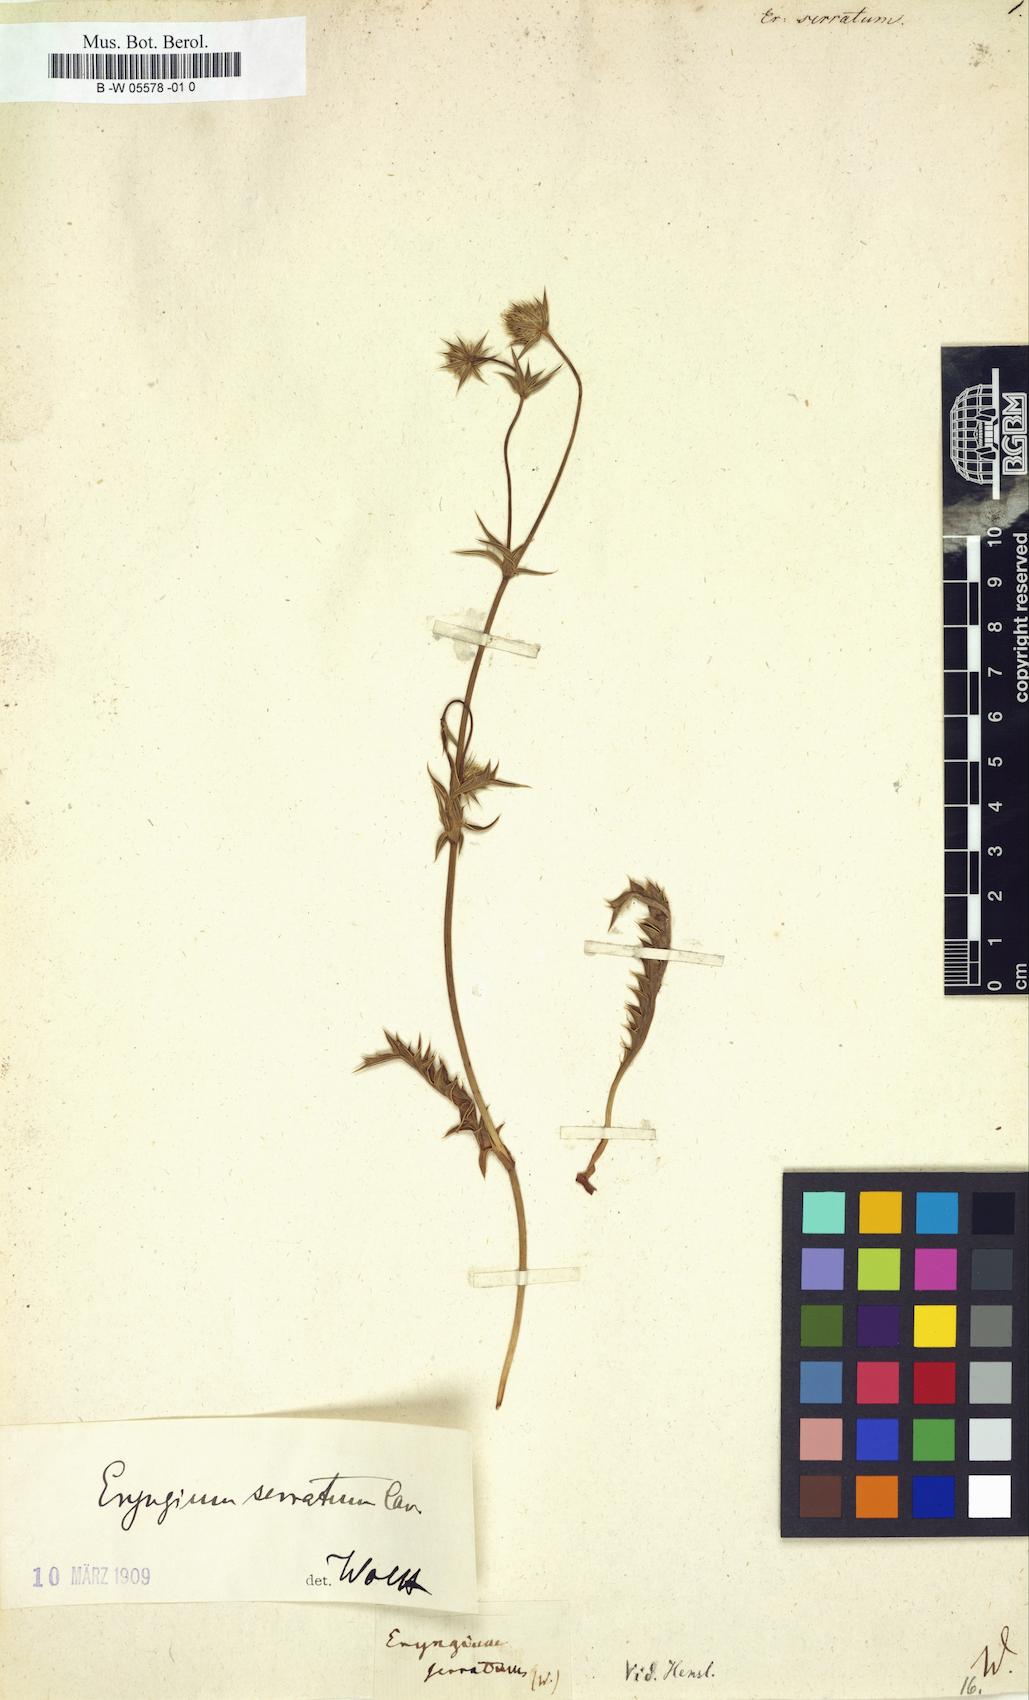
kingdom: Plantae
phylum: Tracheophyta
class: Magnoliopsida
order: Apiales
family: Apiaceae
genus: Eryngium
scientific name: Eryngium serratum
